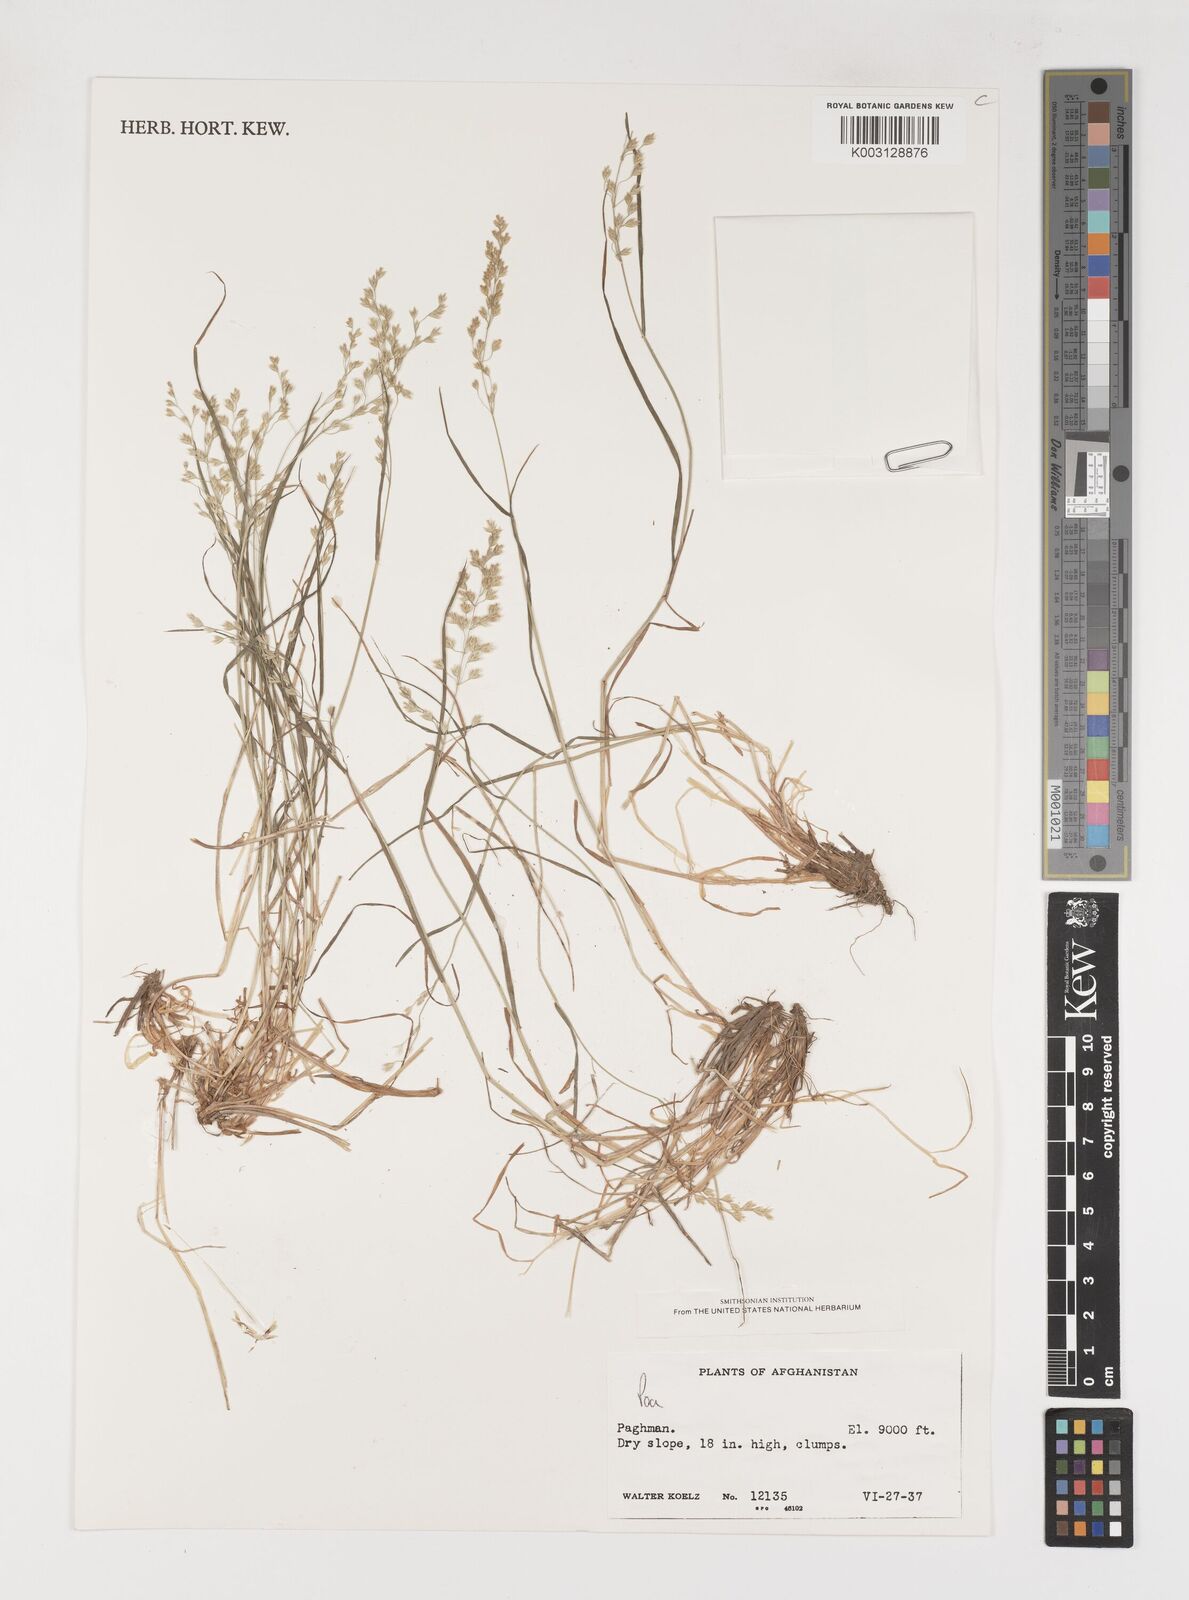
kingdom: Plantae
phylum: Tracheophyta
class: Liliopsida
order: Poales
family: Poaceae
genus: Poa
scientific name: Poa
